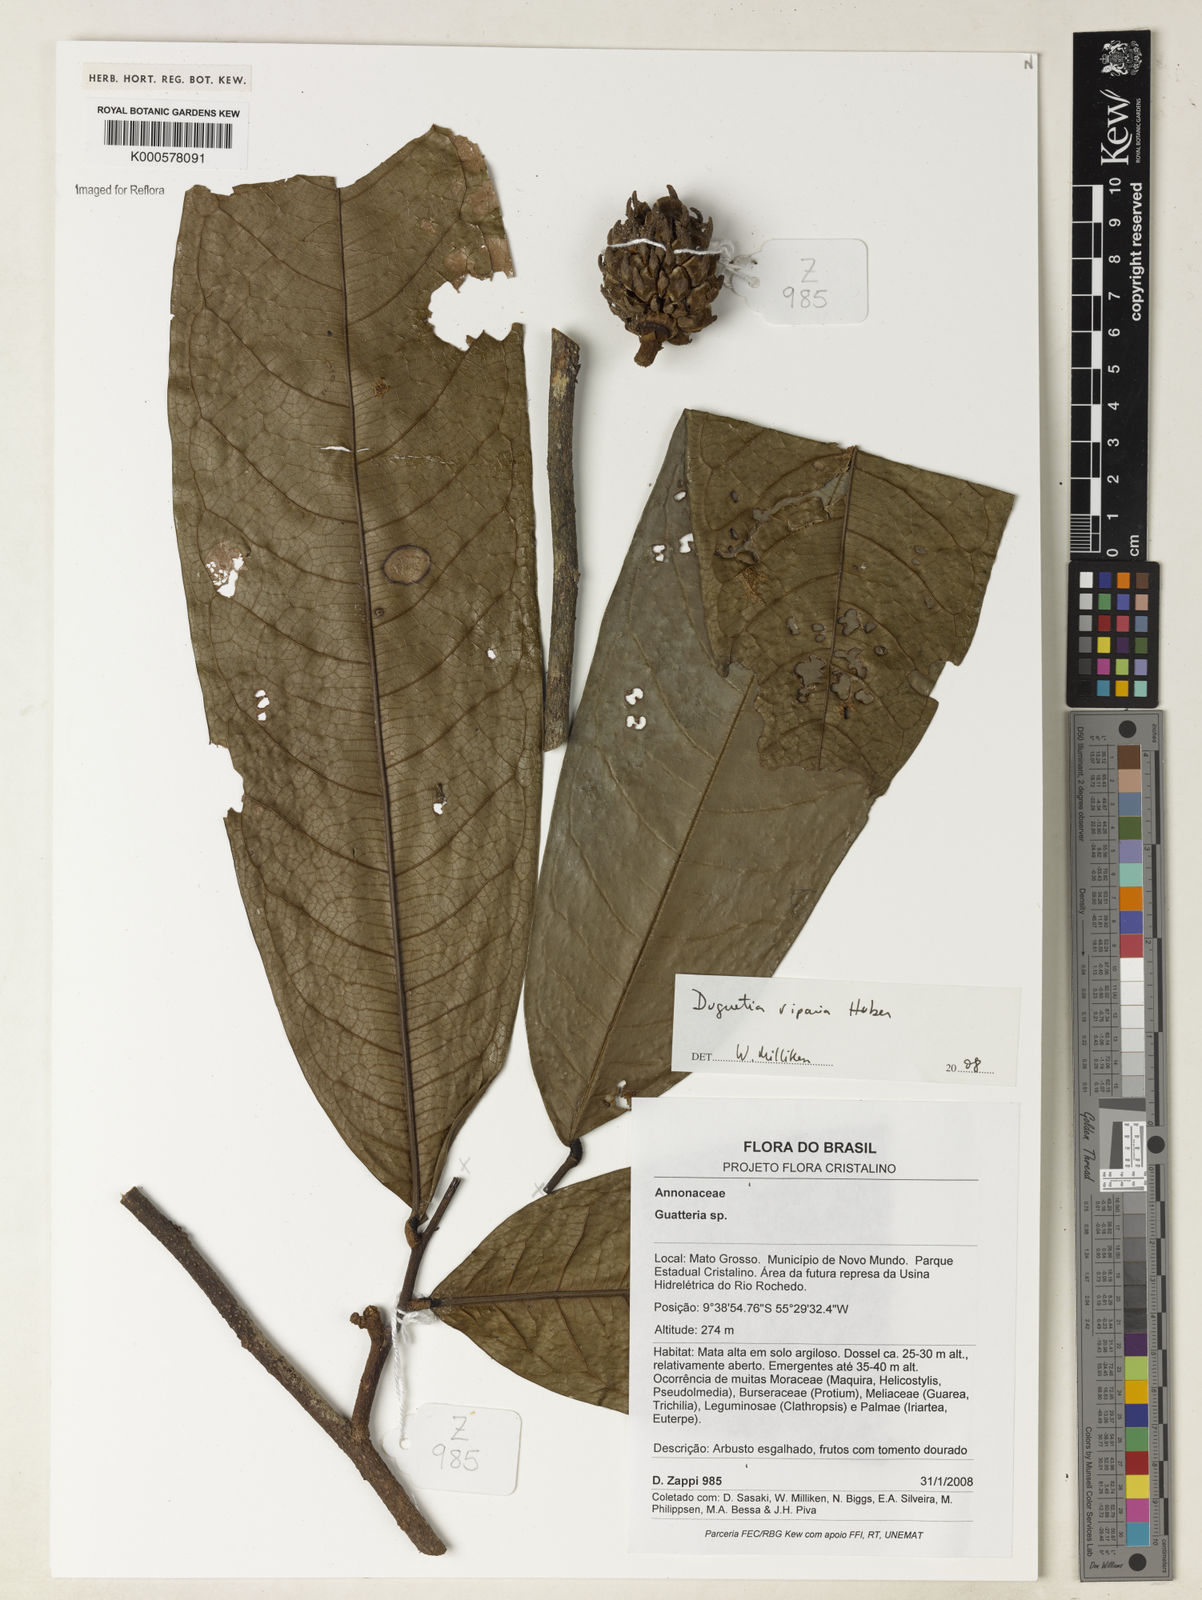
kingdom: Plantae
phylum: Tracheophyta
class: Magnoliopsida
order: Magnoliales
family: Annonaceae
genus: Duguetia
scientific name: Duguetia riparia
